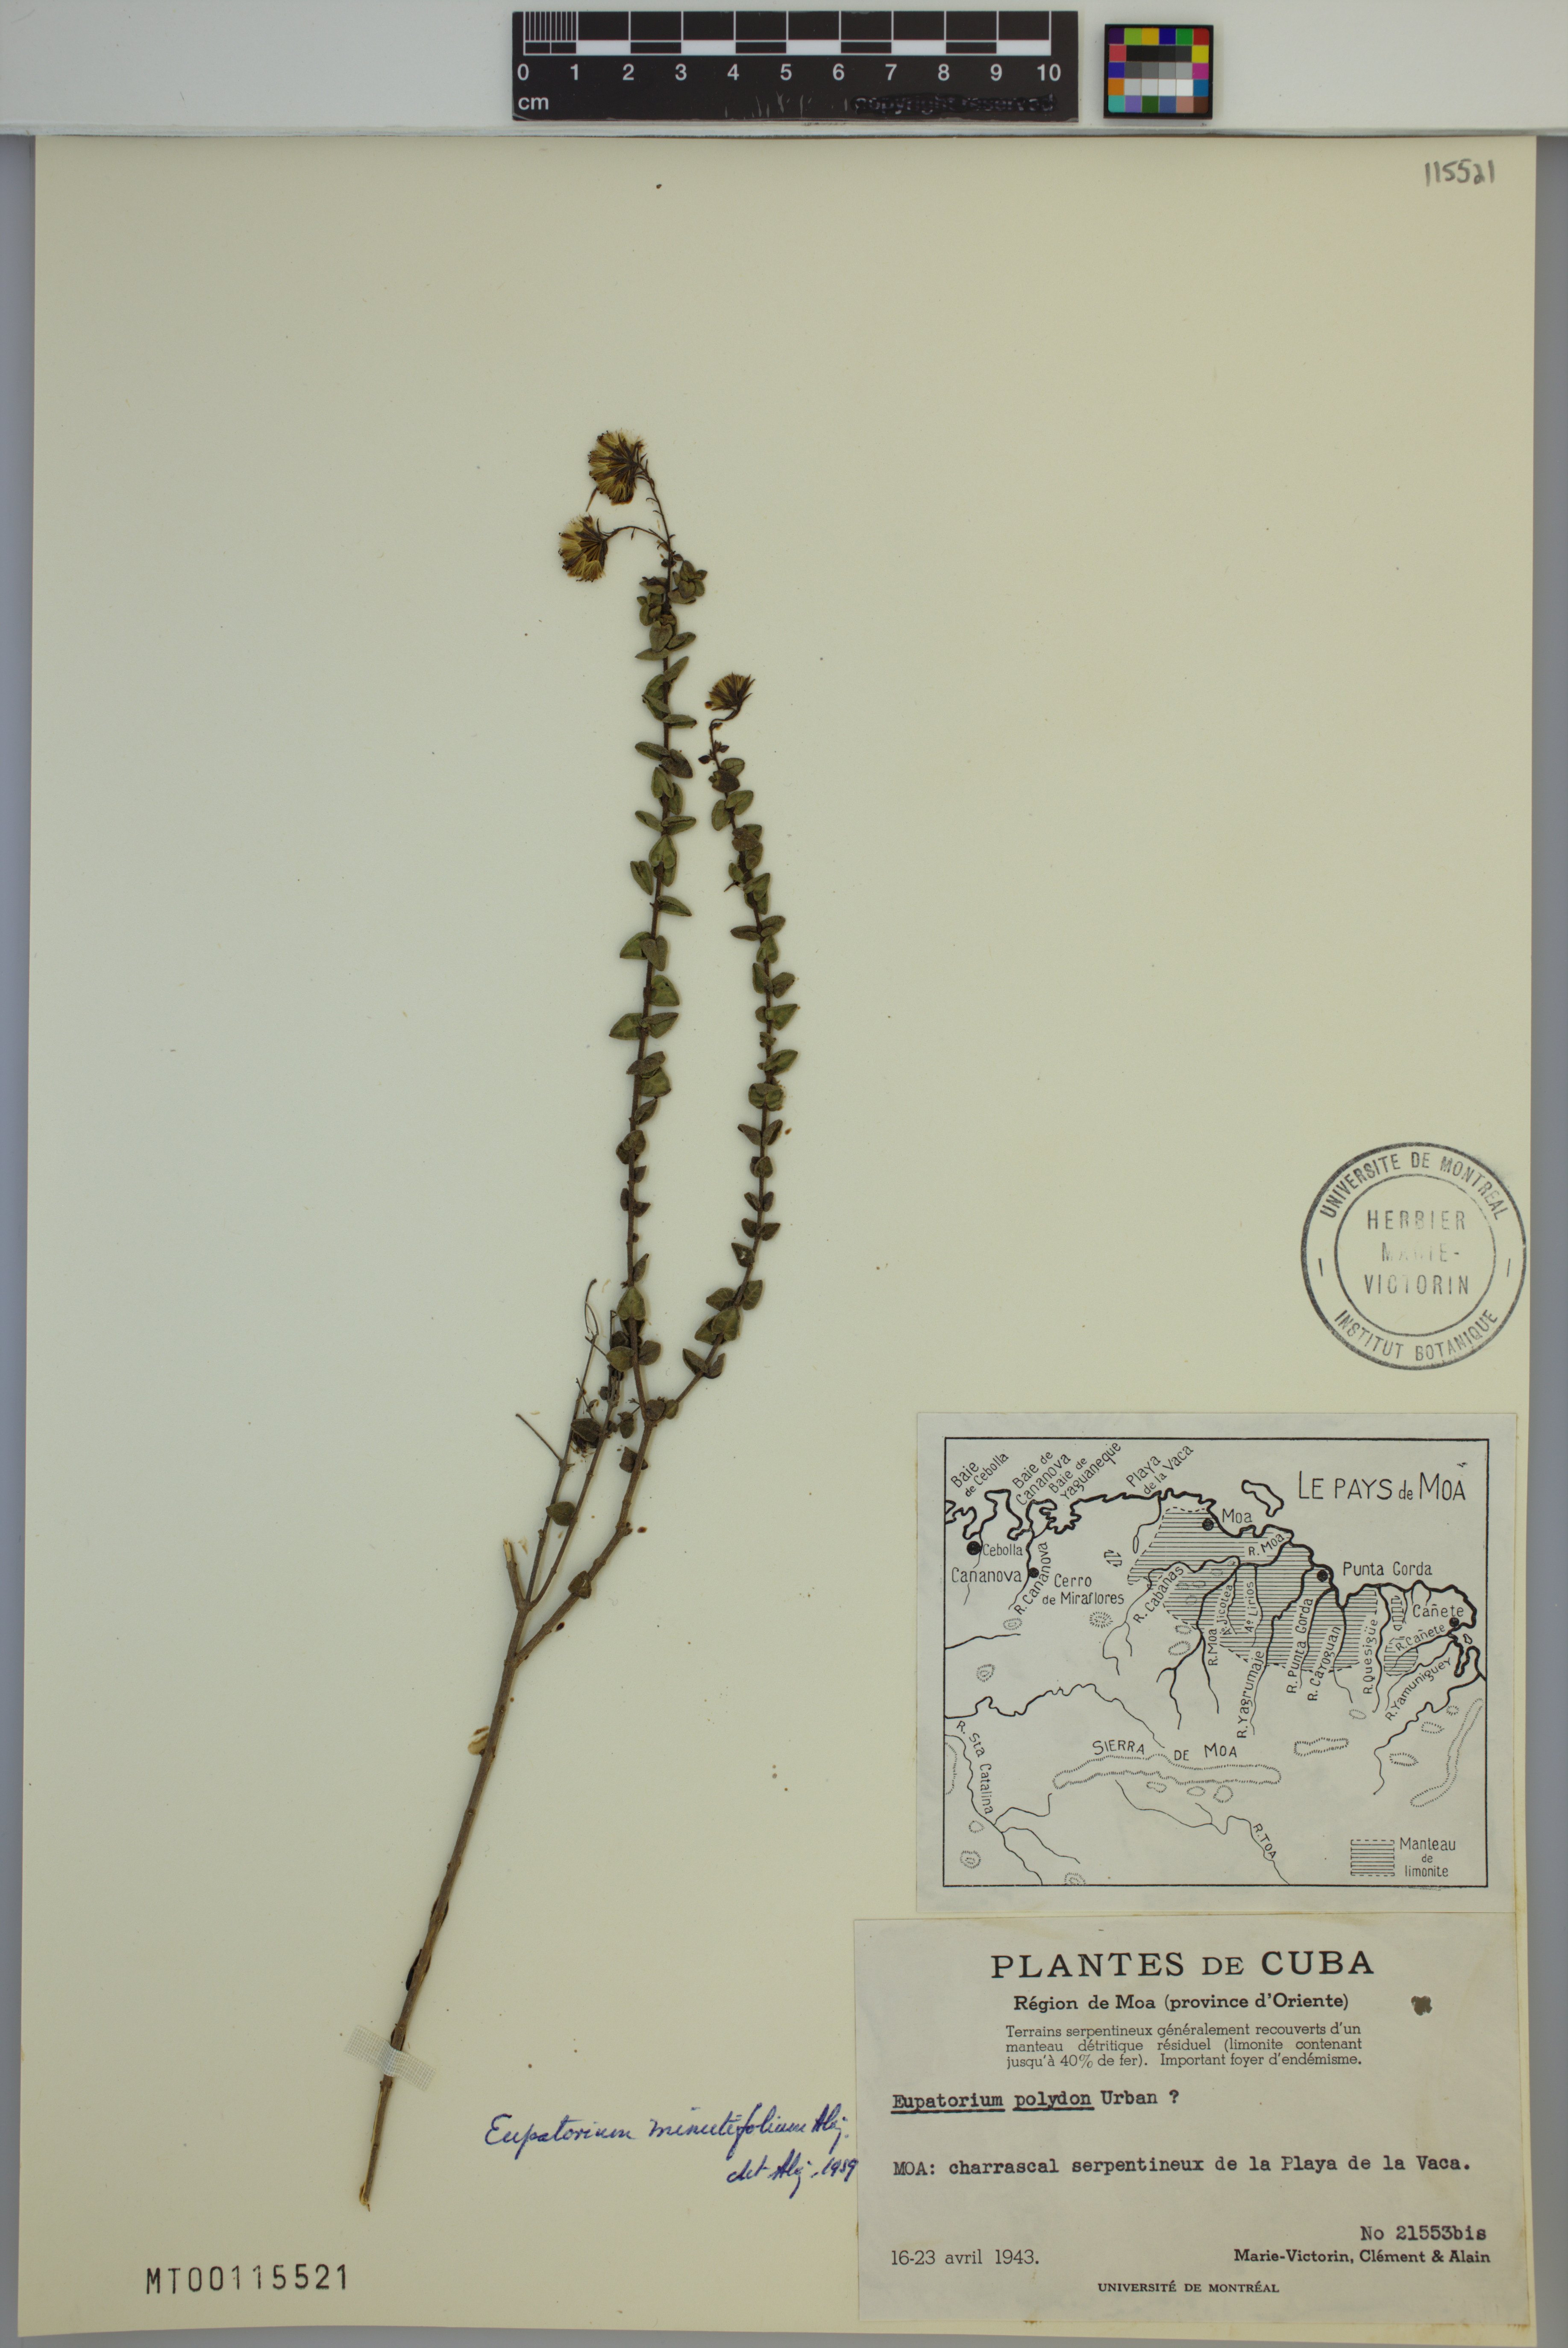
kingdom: Plantae
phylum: Tracheophyta
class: Magnoliopsida
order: Asterales
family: Asteraceae
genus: Koanophyllon
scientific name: Koanophyllon minutifolium
